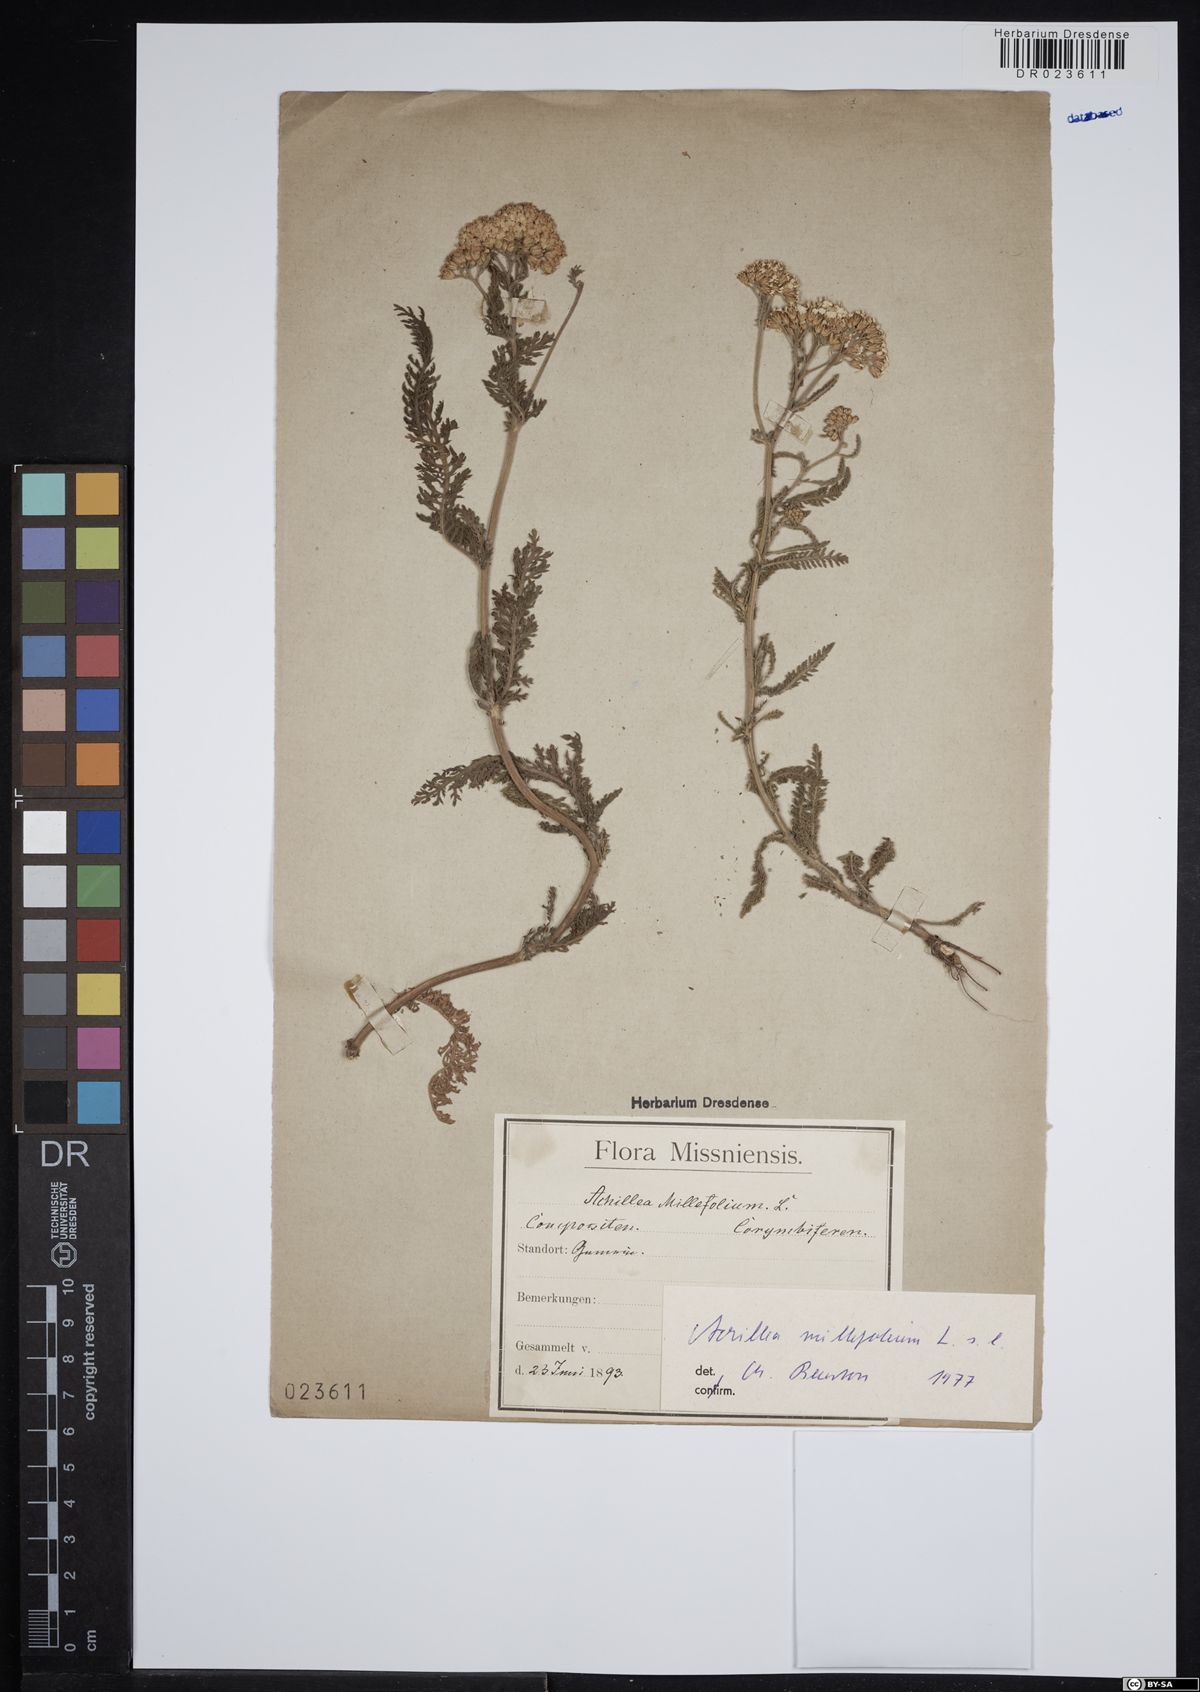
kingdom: Plantae
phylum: Tracheophyta
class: Magnoliopsida
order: Asterales
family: Asteraceae
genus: Achillea
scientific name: Achillea millefolium
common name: Yarrow
